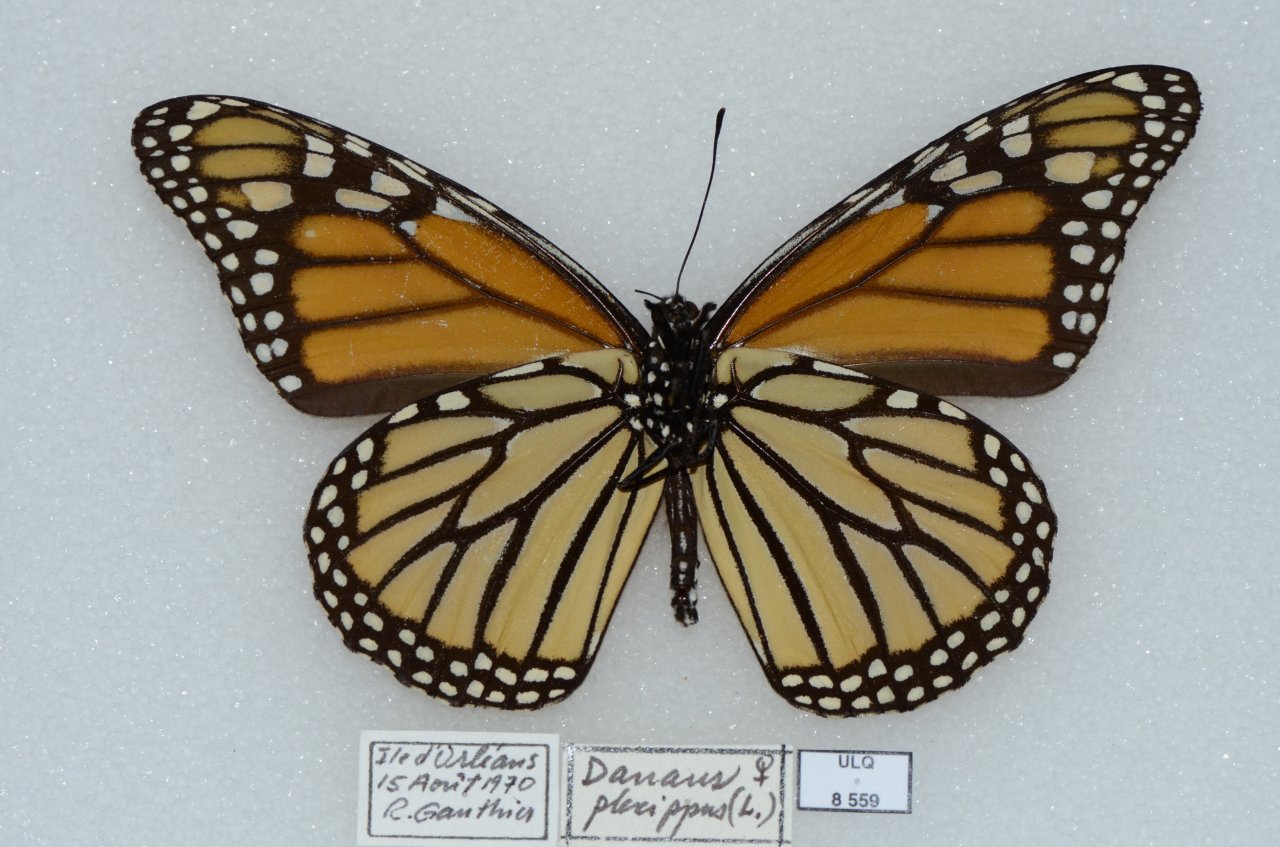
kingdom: Animalia
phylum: Arthropoda
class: Insecta
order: Lepidoptera
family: Nymphalidae
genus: Danaus
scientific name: Danaus plexippus
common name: Monarch
